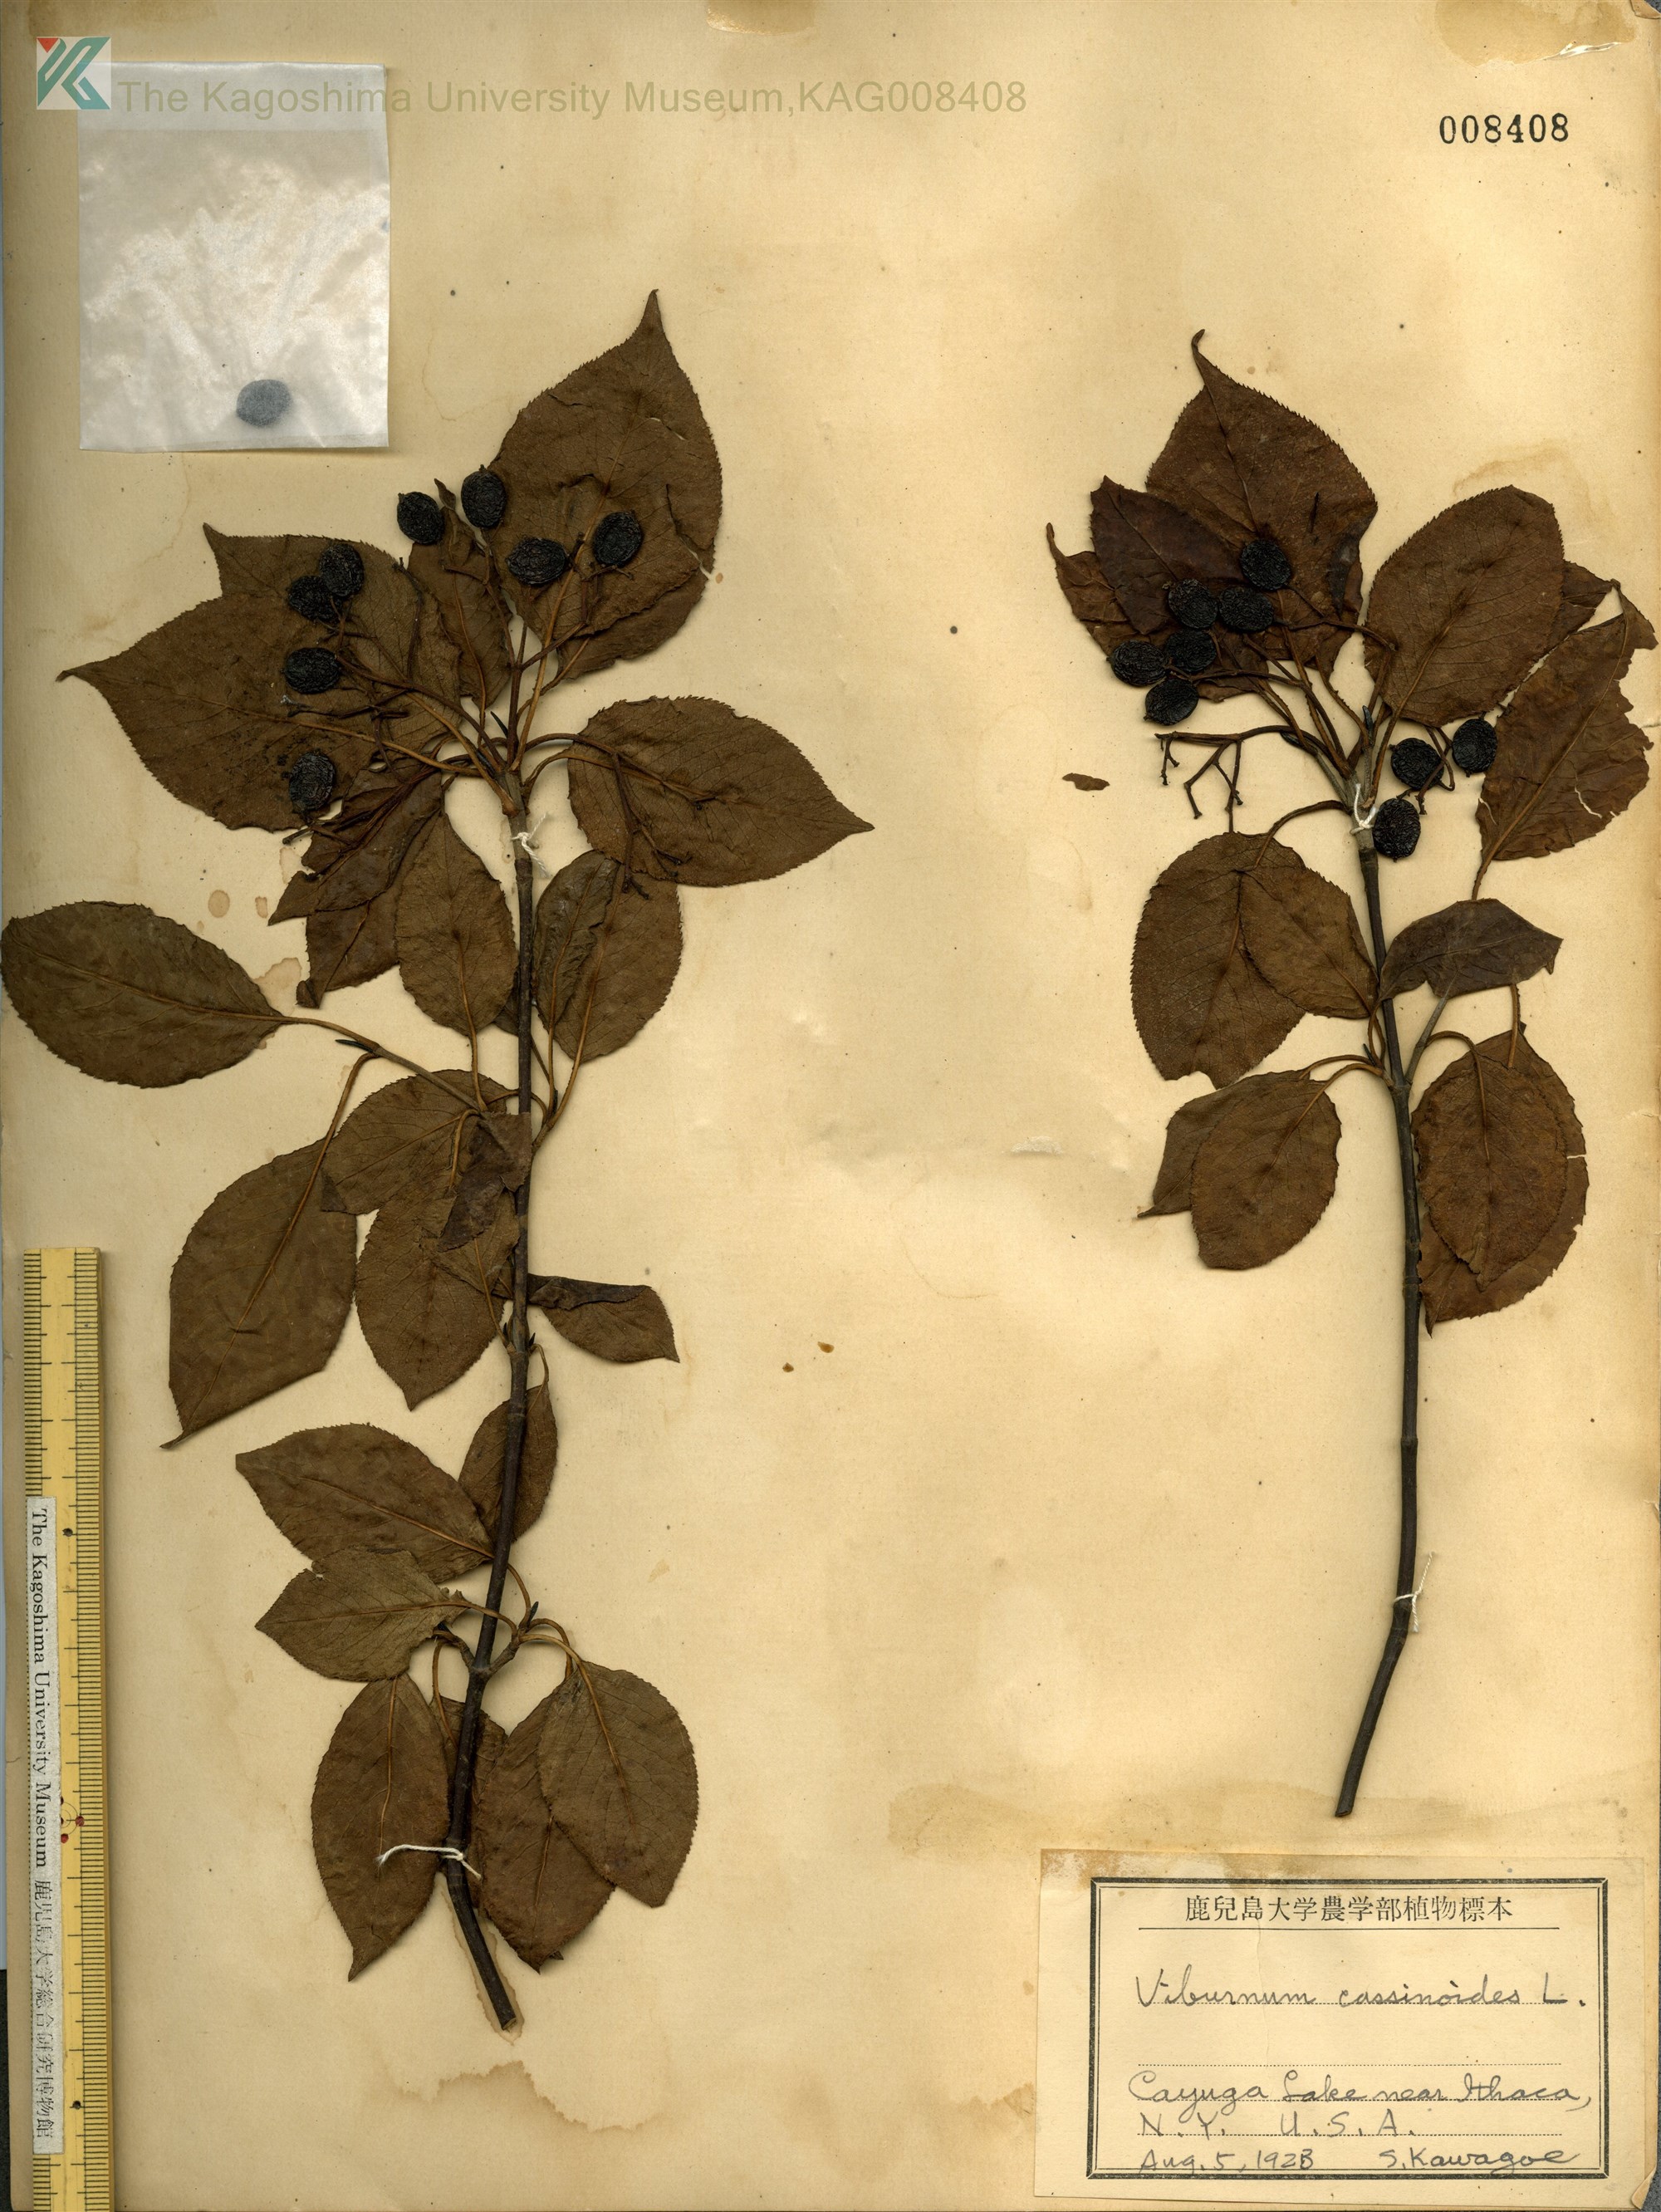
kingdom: Plantae
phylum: Tracheophyta
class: Magnoliopsida
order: Dipsacales
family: Viburnaceae
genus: Viburnum
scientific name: Viburnum cassinoides
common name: Swamp haw
